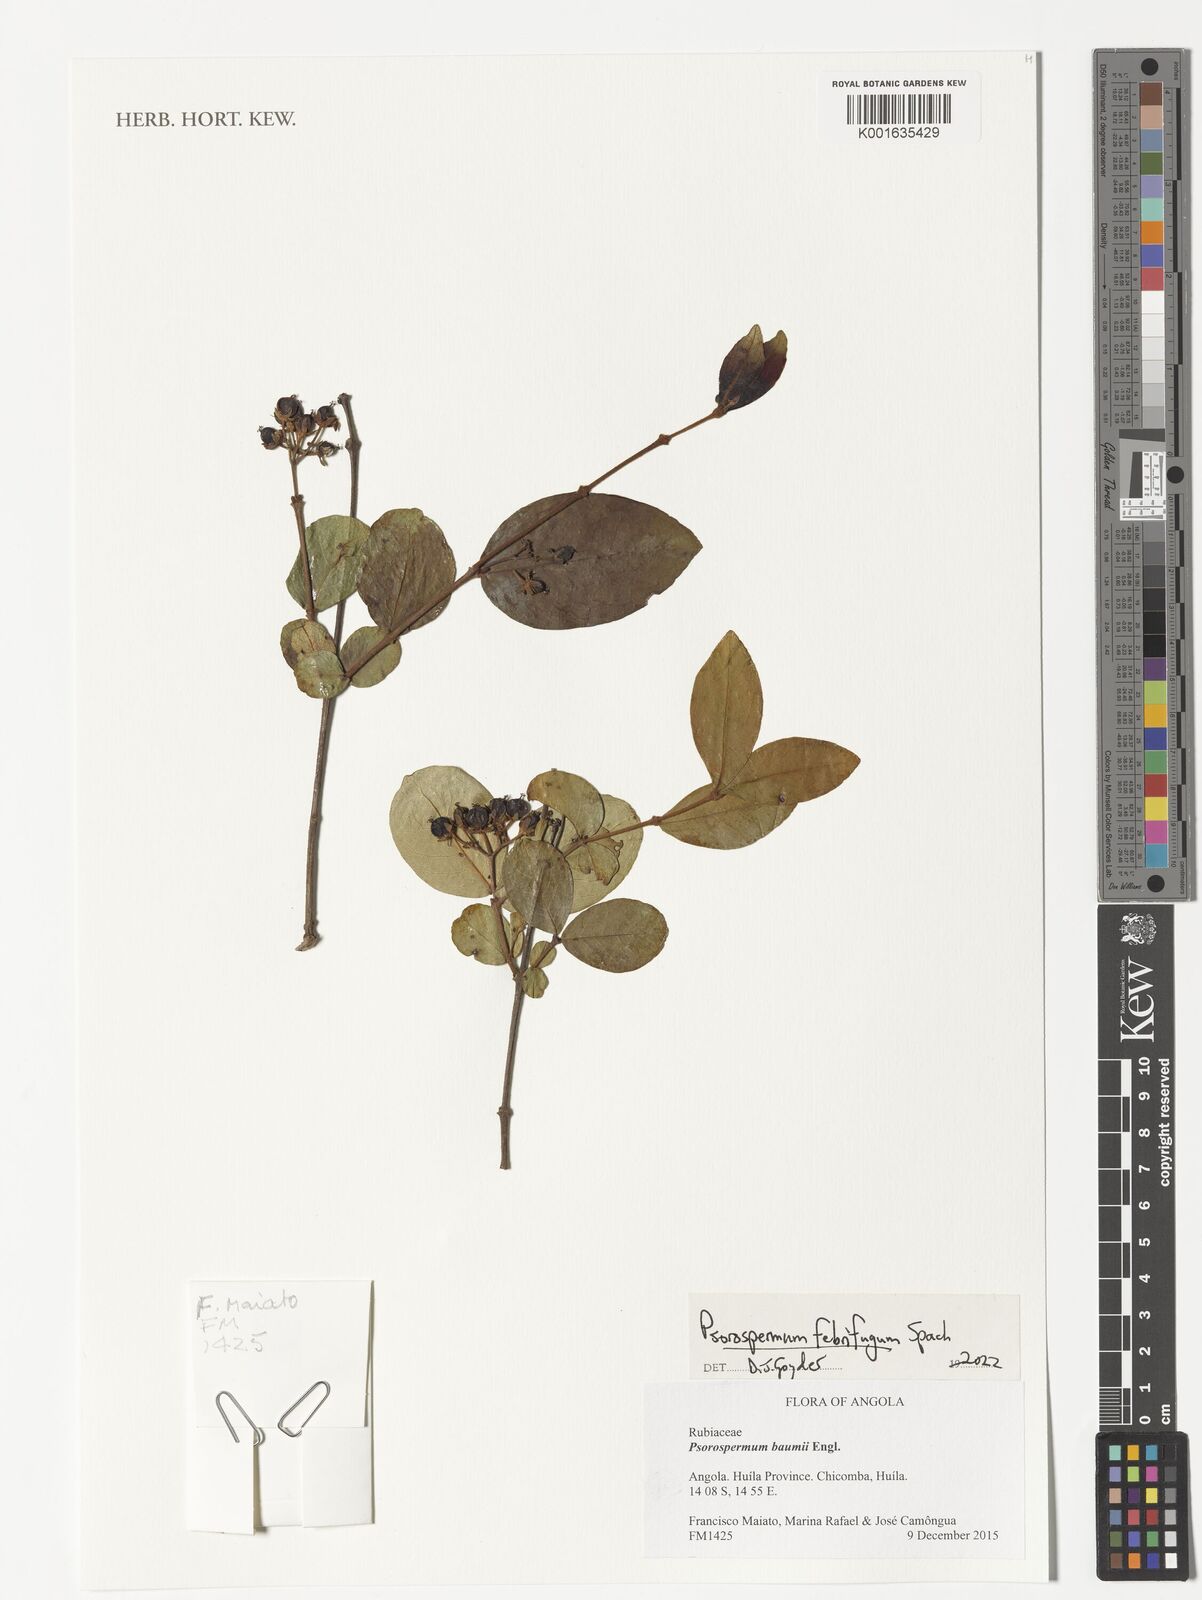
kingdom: Plantae
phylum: Tracheophyta
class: Magnoliopsida
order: Malpighiales
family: Hypericaceae
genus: Psorospermum
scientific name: Psorospermum febrifugum
